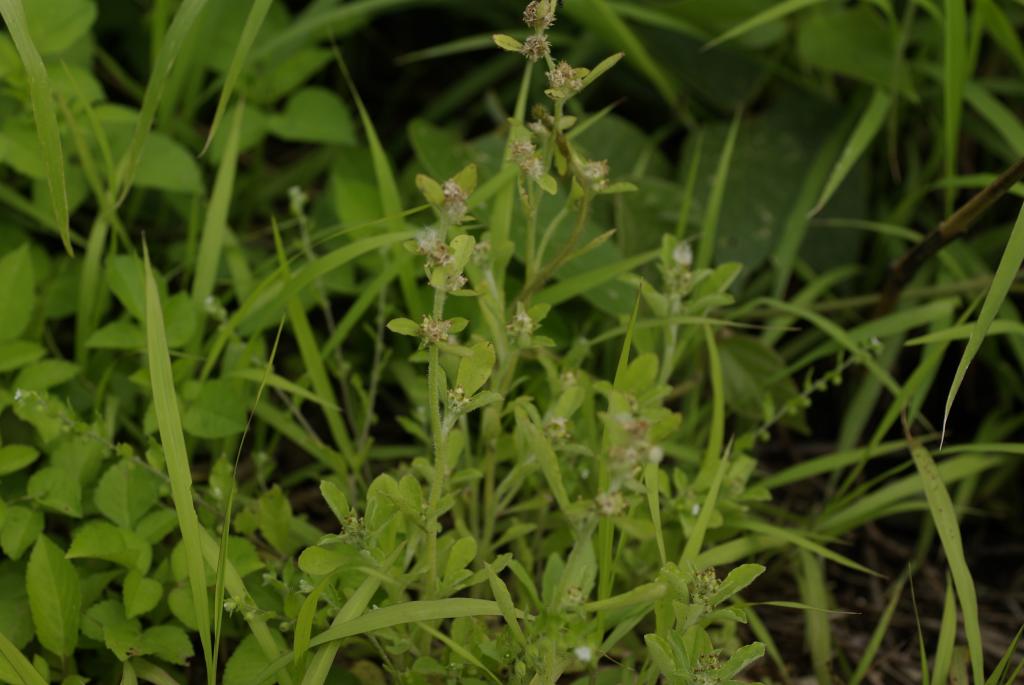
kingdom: Plantae
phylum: Tracheophyta
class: Magnoliopsida
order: Asterales
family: Asteraceae
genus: Gamochaeta
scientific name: Gamochaeta purpurea
